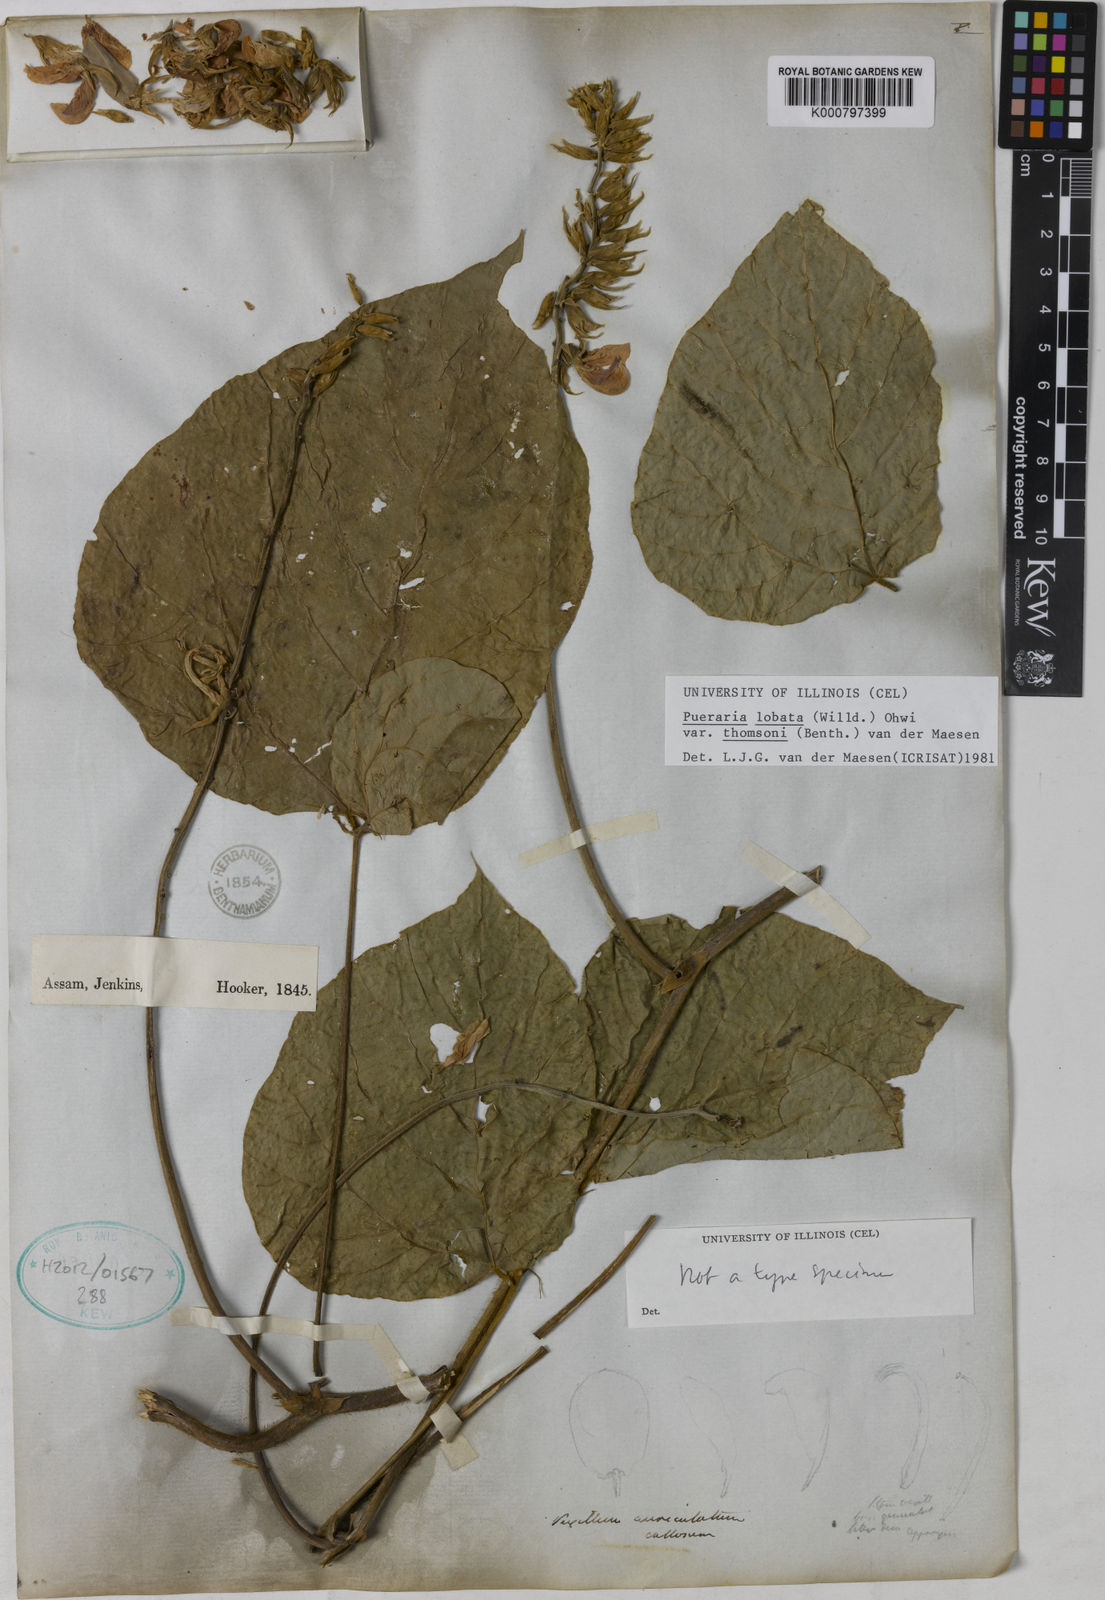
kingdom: Plantae
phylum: Tracheophyta
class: Magnoliopsida
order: Fabales
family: Fabaceae
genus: Pueraria
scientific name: Pueraria montana
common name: Kudzu
